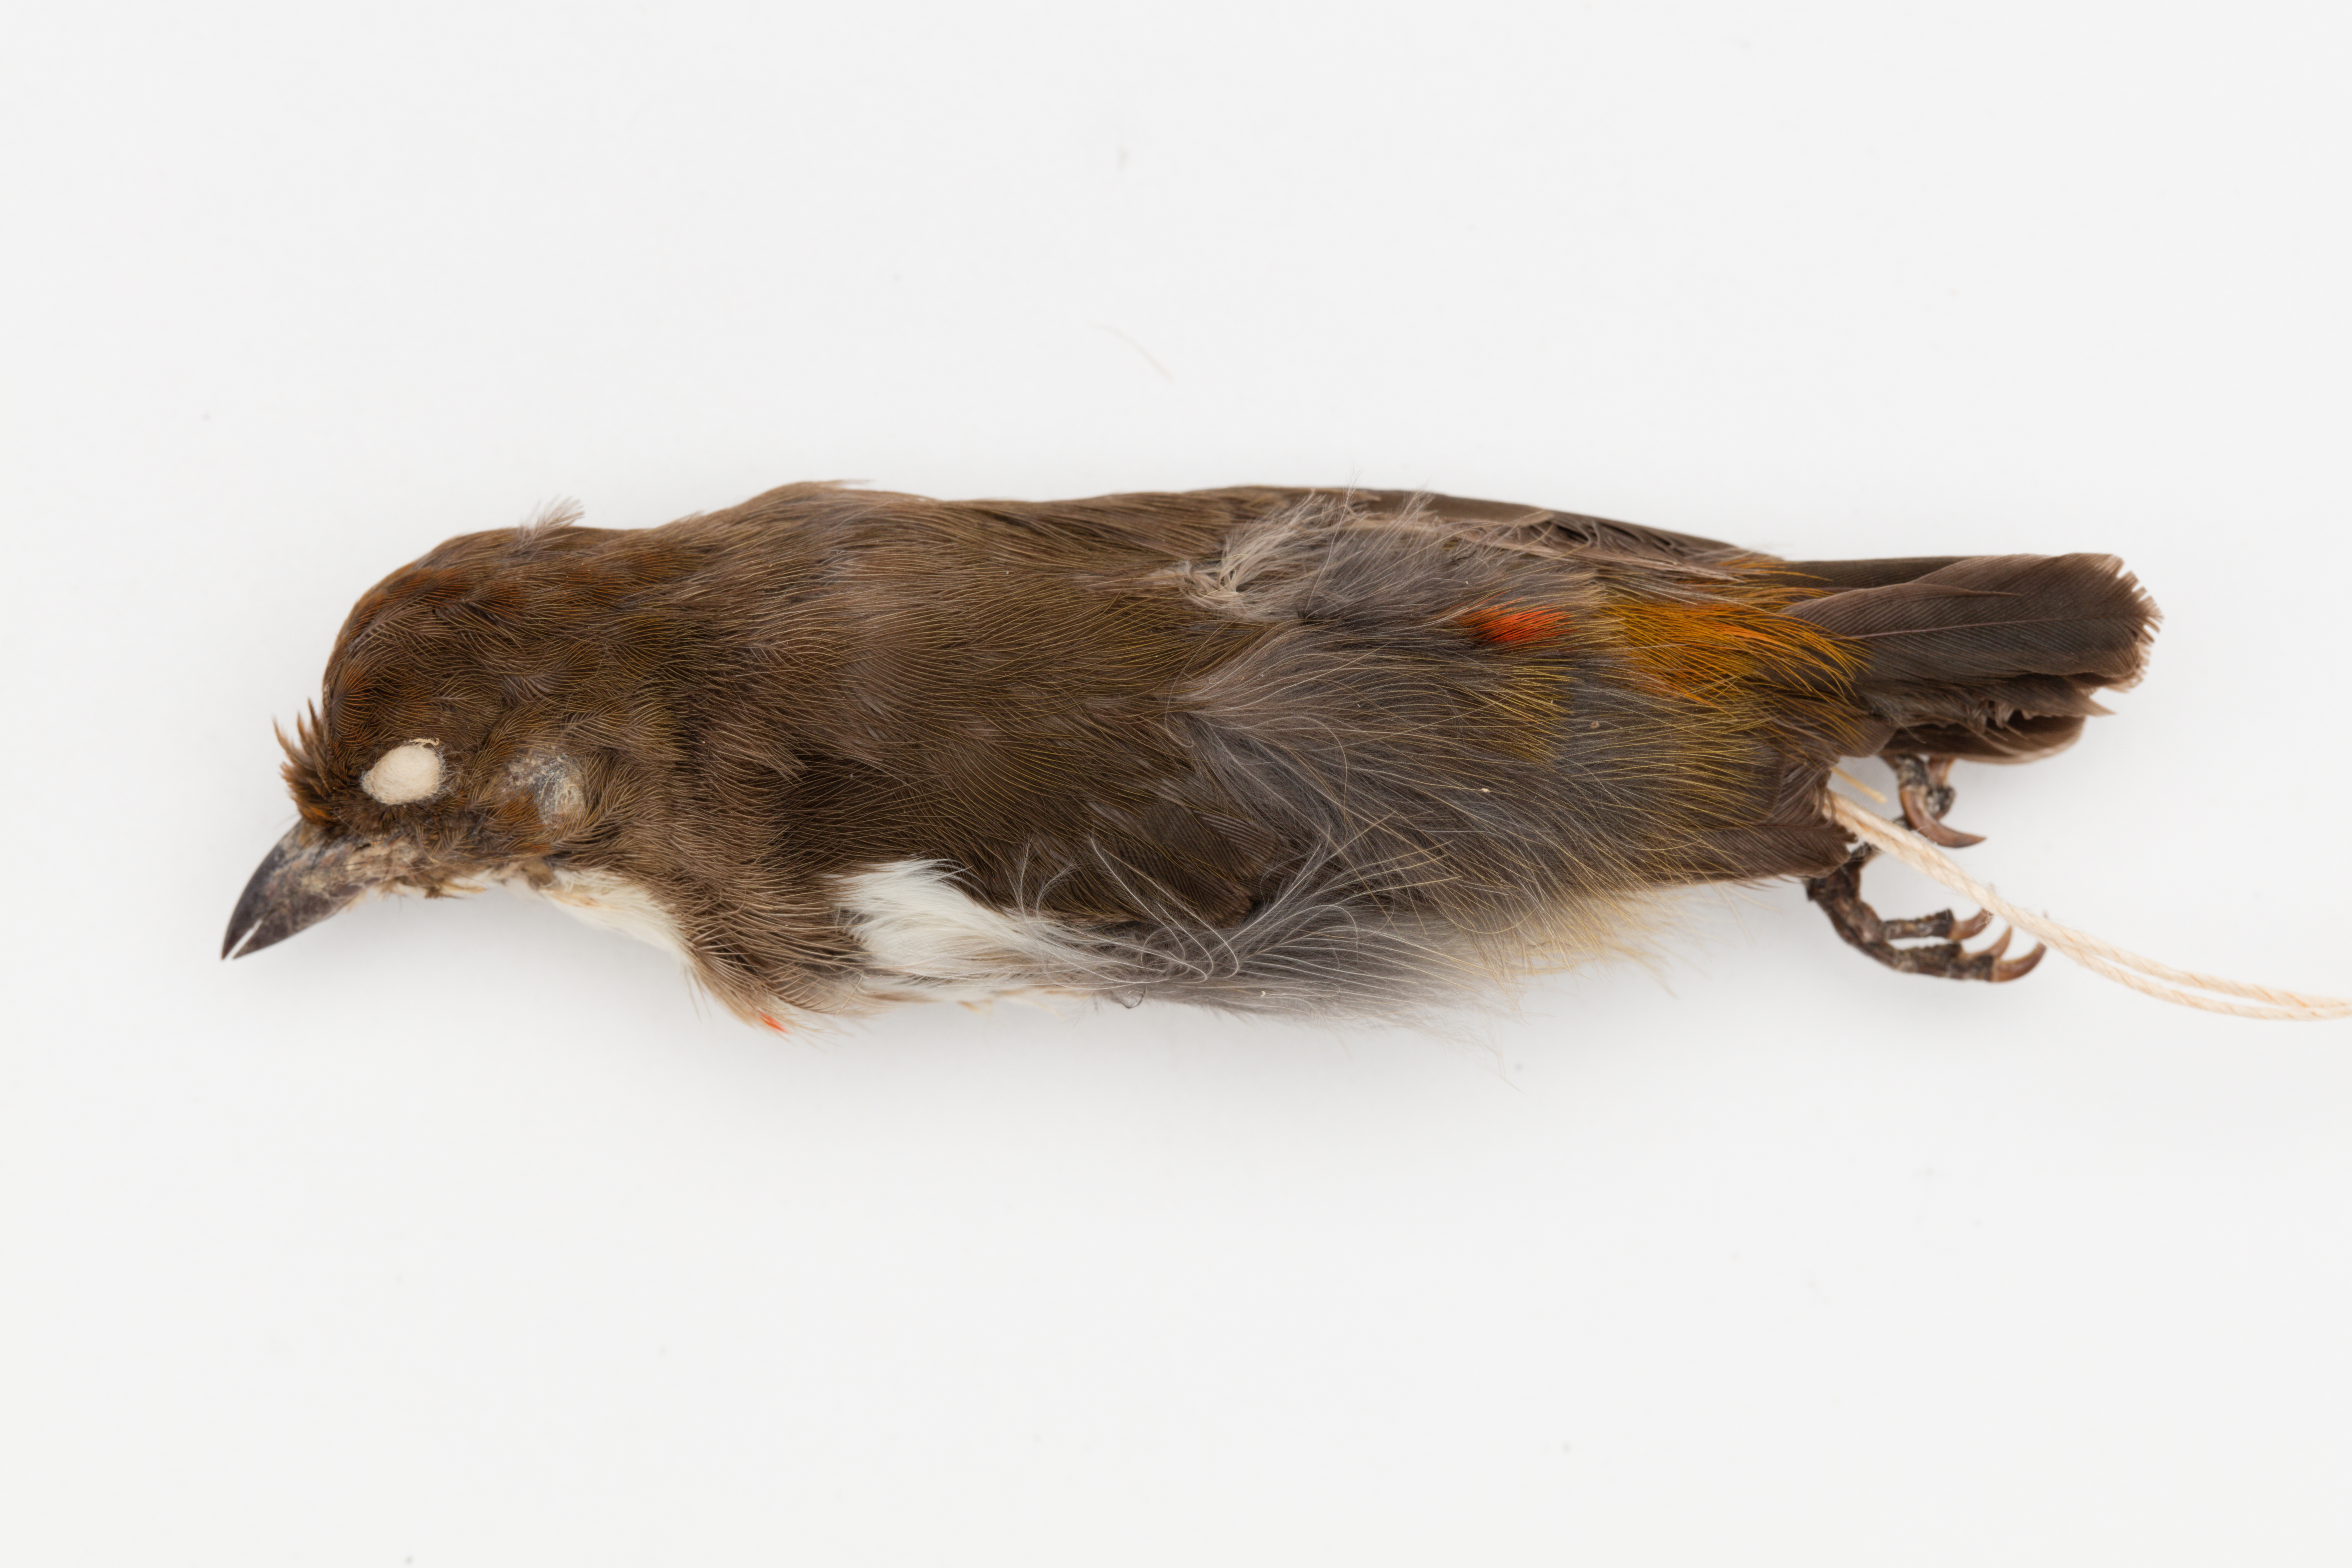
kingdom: Animalia
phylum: Chordata
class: Aves
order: Passeriformes
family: Dicaeidae
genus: Dicaeum
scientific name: Dicaeum geelvinkianum
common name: Red-capped flowerpecker
